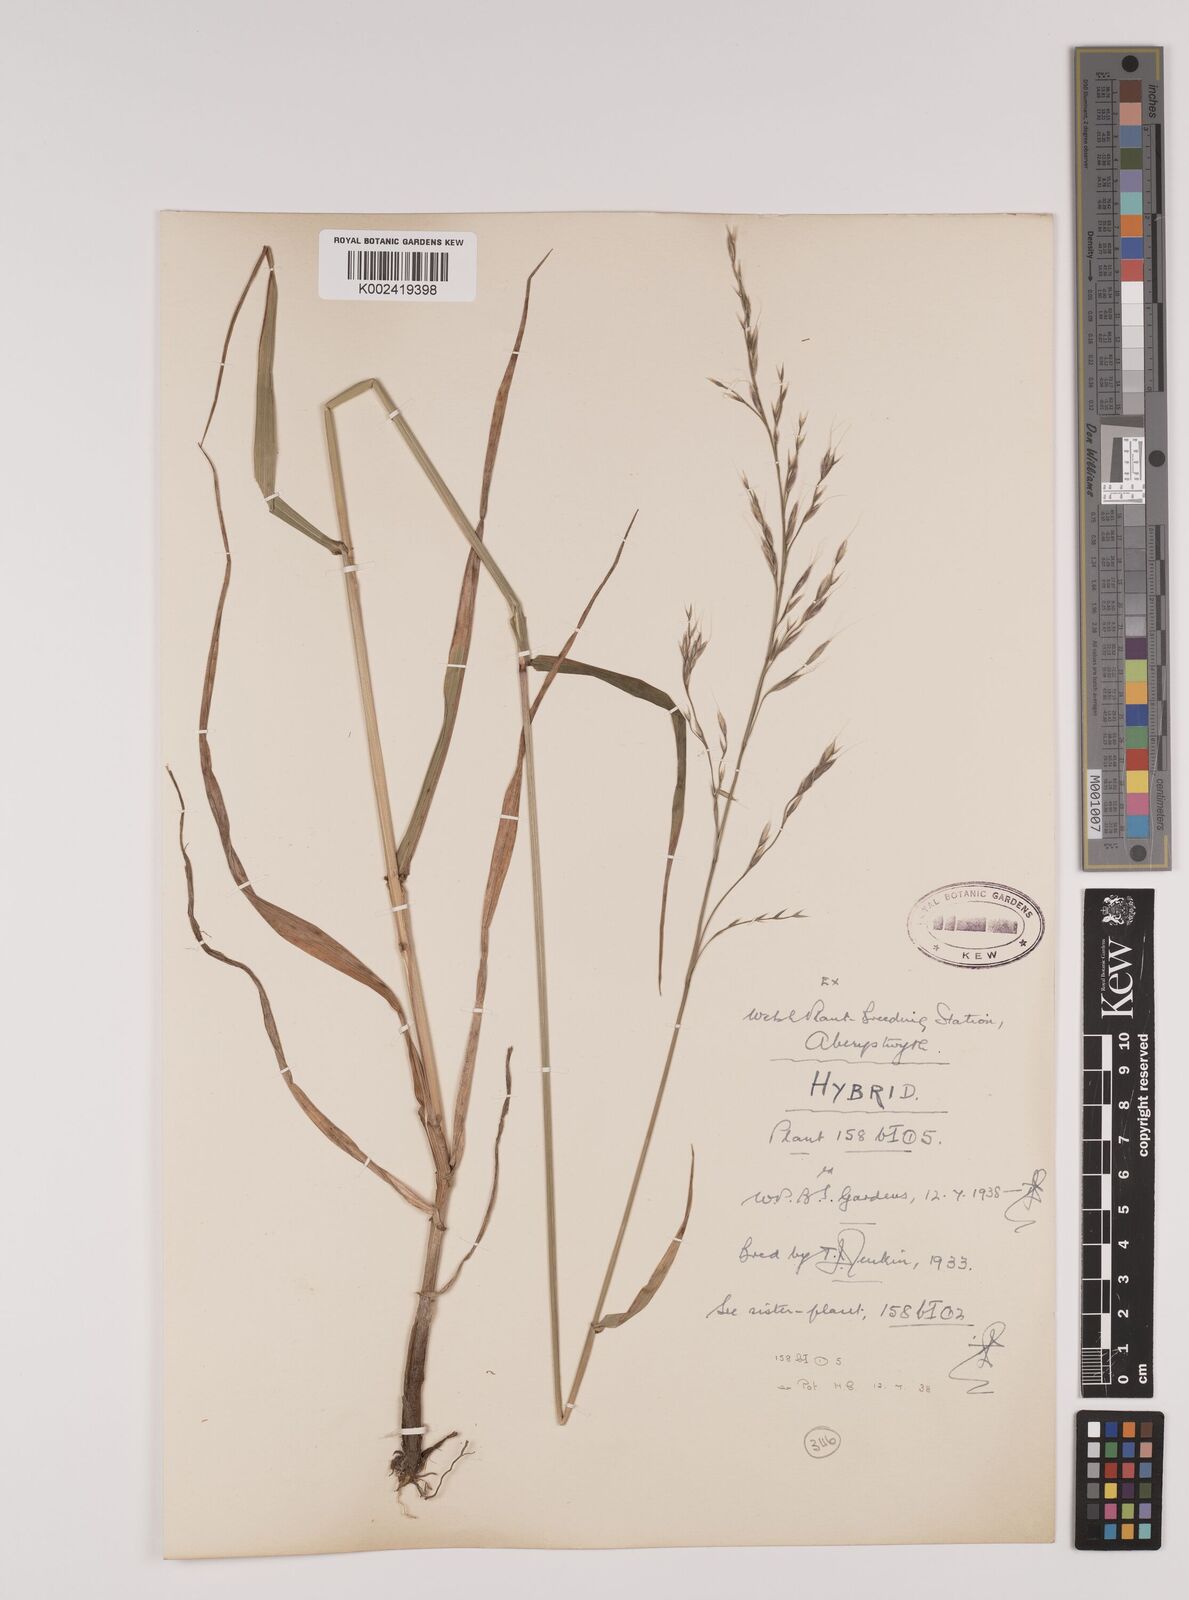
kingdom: Plantae
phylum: Tracheophyta
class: Liliopsida
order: Poales
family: Poaceae
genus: Lolium
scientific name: Lolium giganteum
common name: Giant fescue
